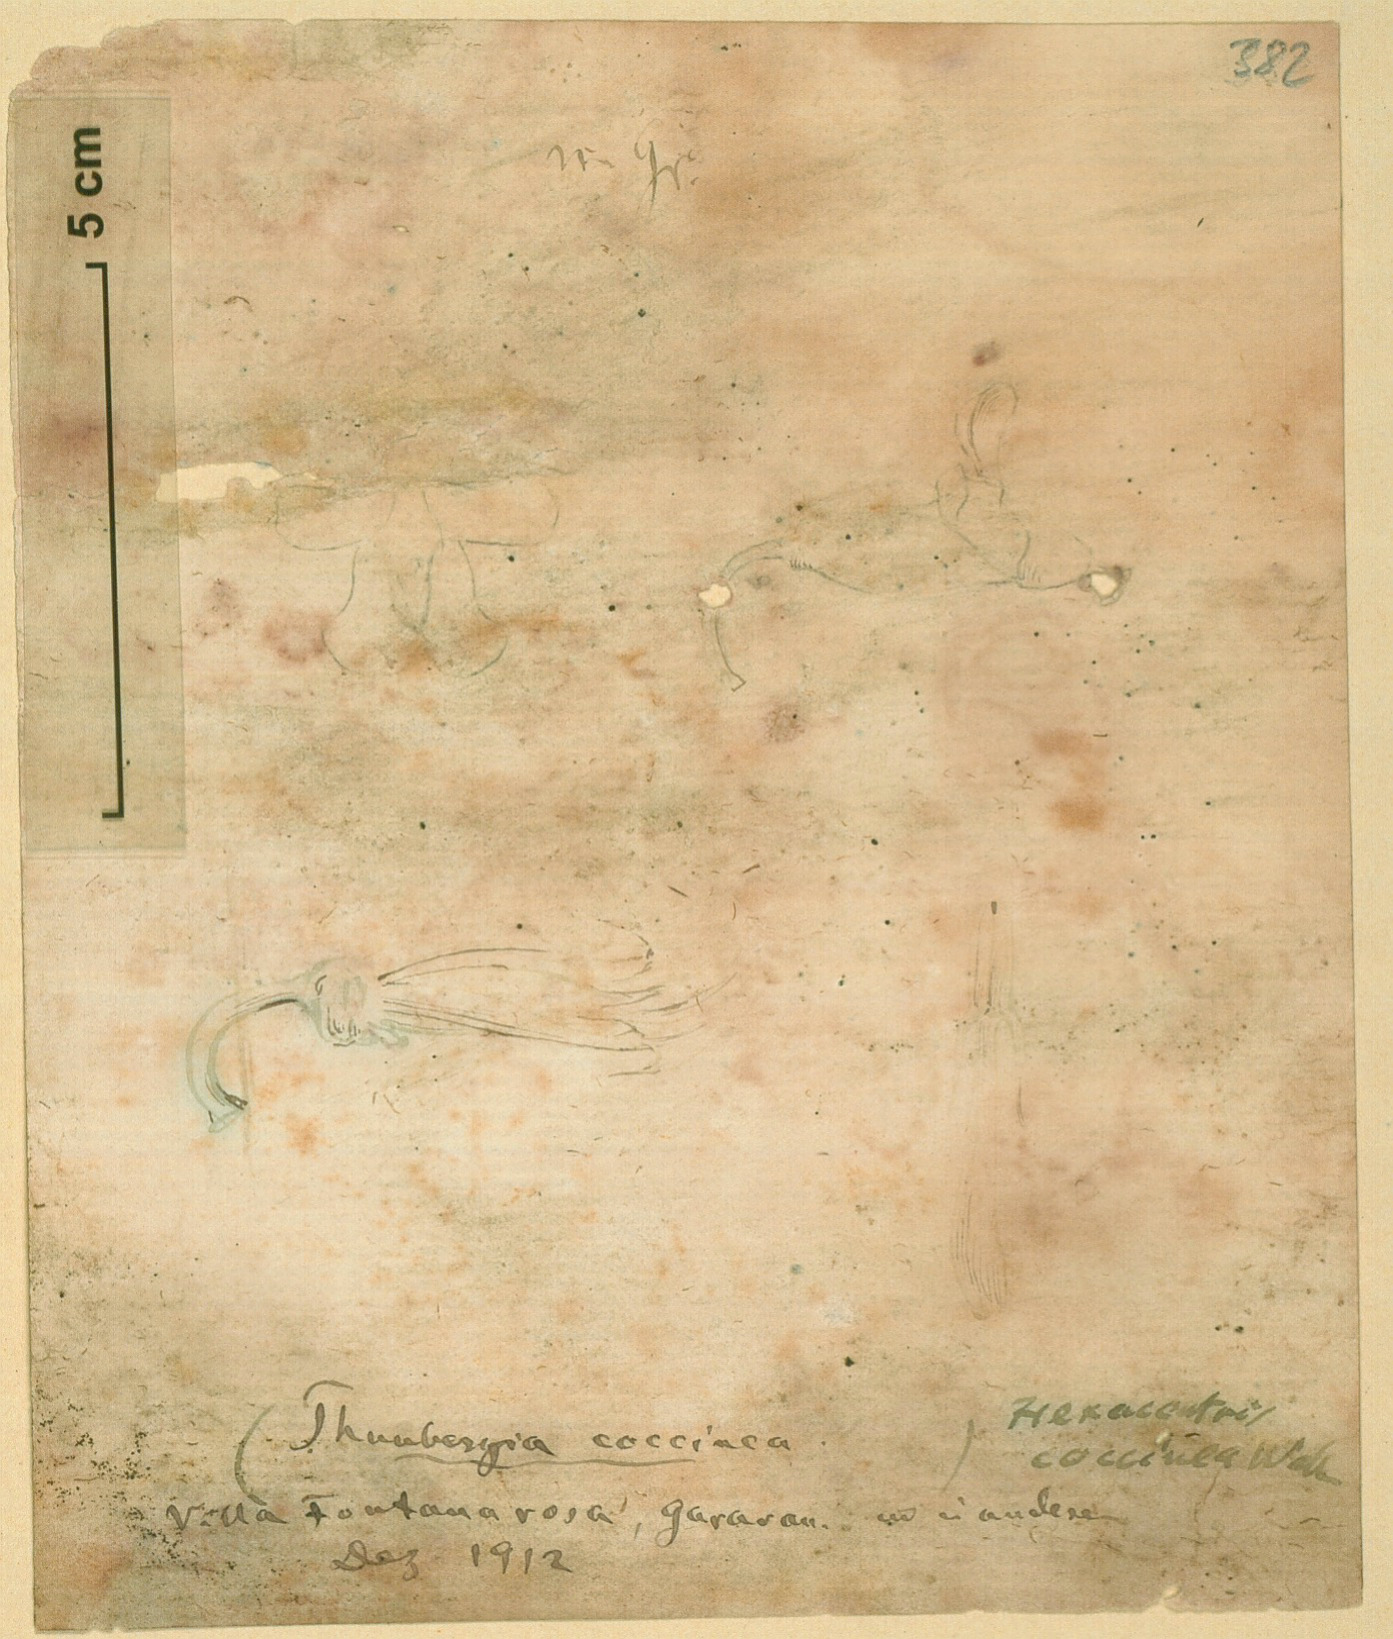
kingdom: Plantae
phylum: Tracheophyta
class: Magnoliopsida
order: Lamiales
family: Acanthaceae
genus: Thunbergia
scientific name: Thunbergia coccinea
